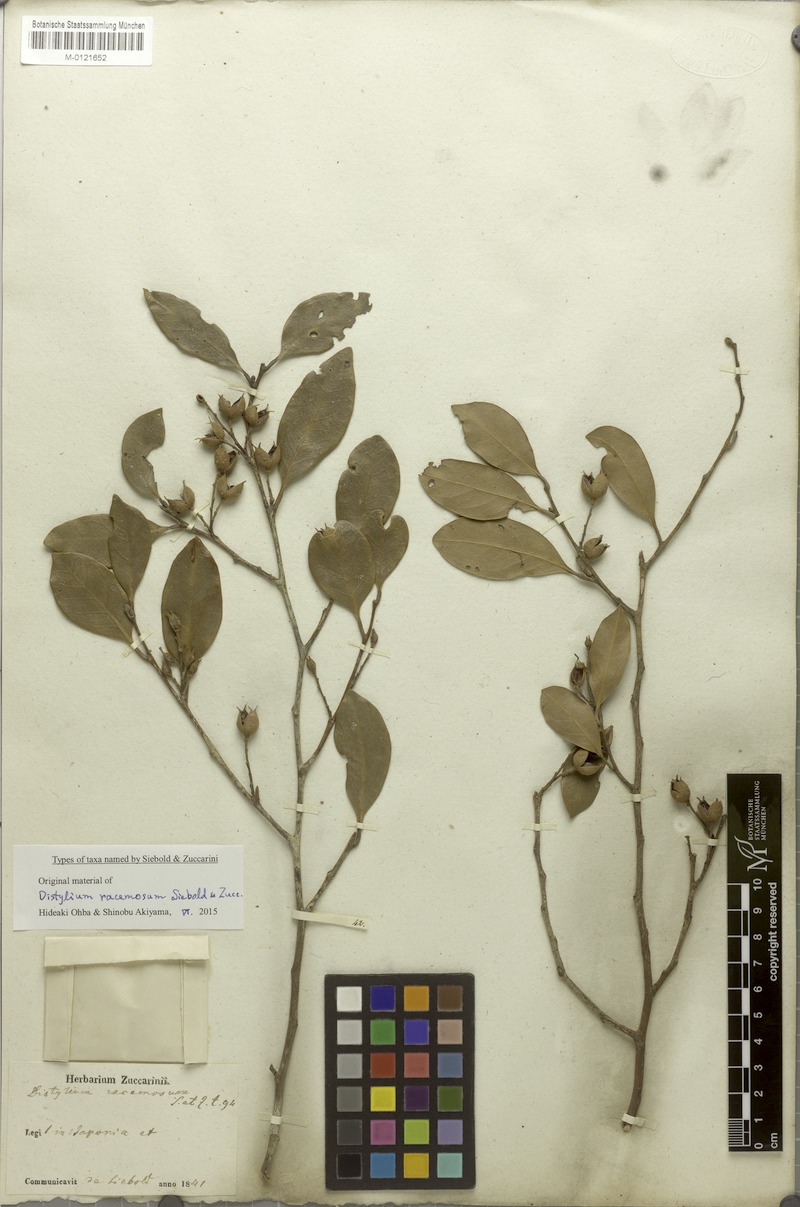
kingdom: Plantae
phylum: Tracheophyta
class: Magnoliopsida
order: Saxifragales
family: Hamamelidaceae
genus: Distylium
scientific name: Distylium racemosum
